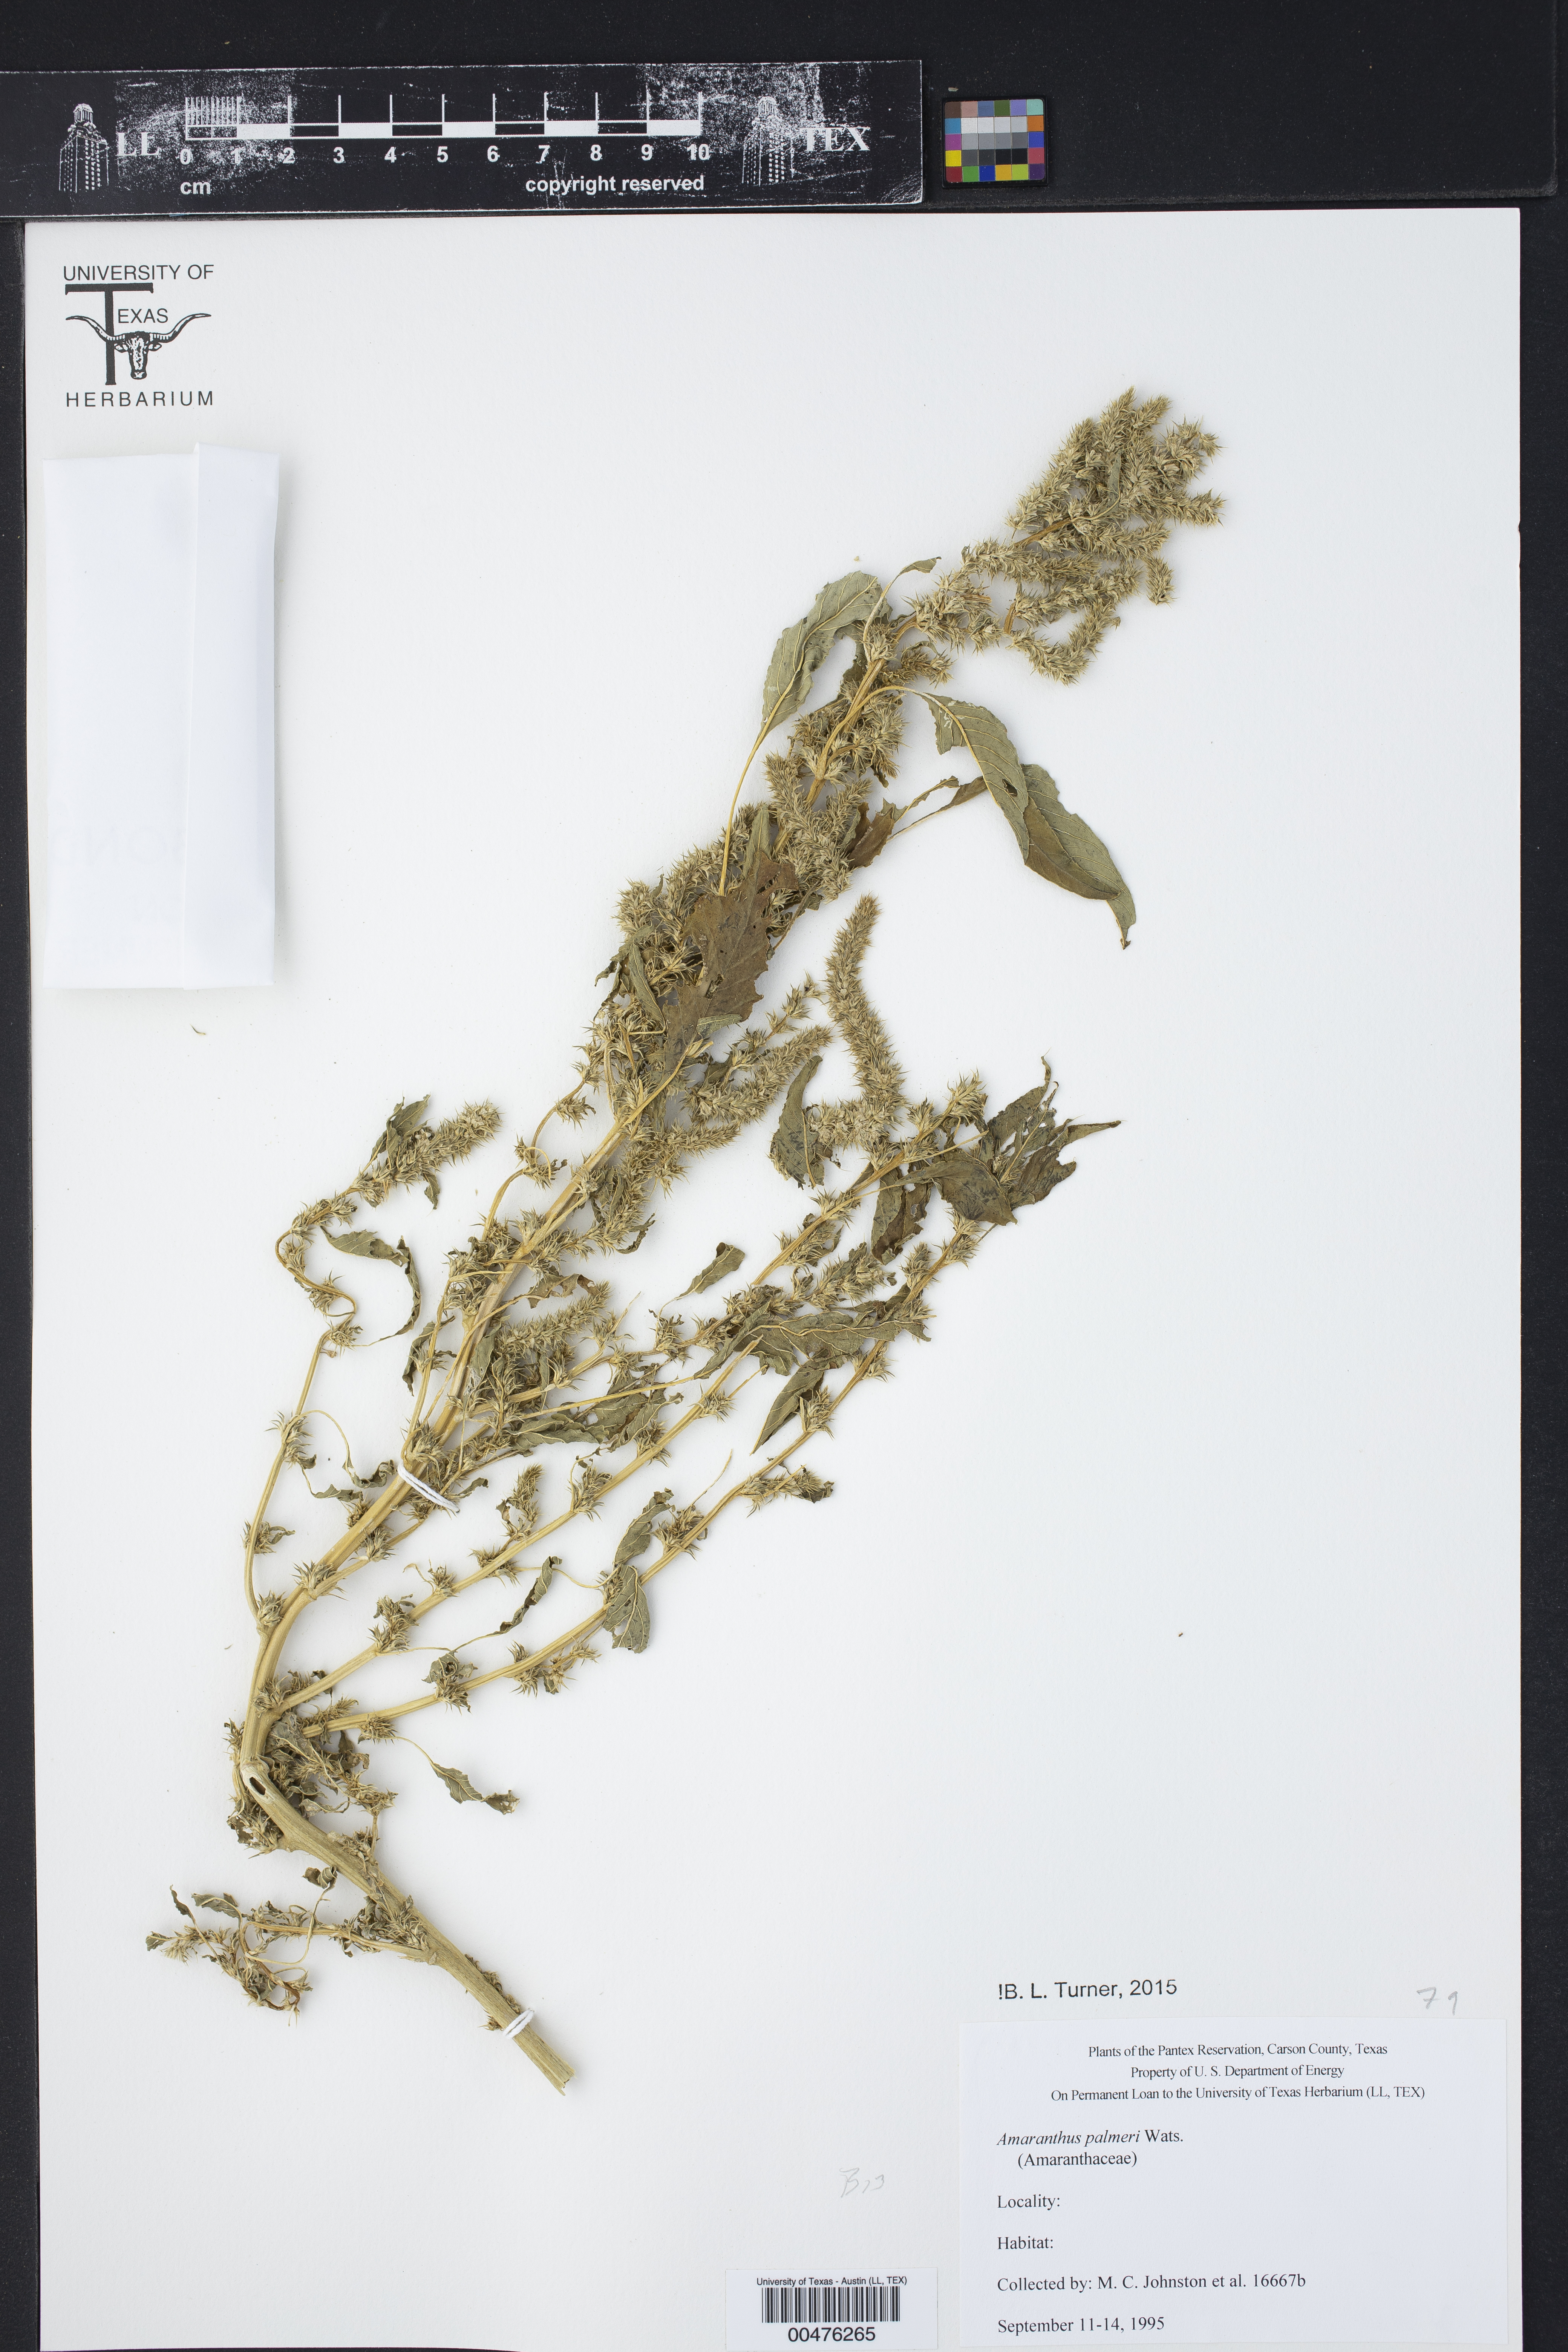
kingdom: Plantae
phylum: Tracheophyta
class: Magnoliopsida
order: Caryophyllales
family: Amaranthaceae
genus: Amaranthus
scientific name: Amaranthus palmeri
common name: Dioecious amaranth
